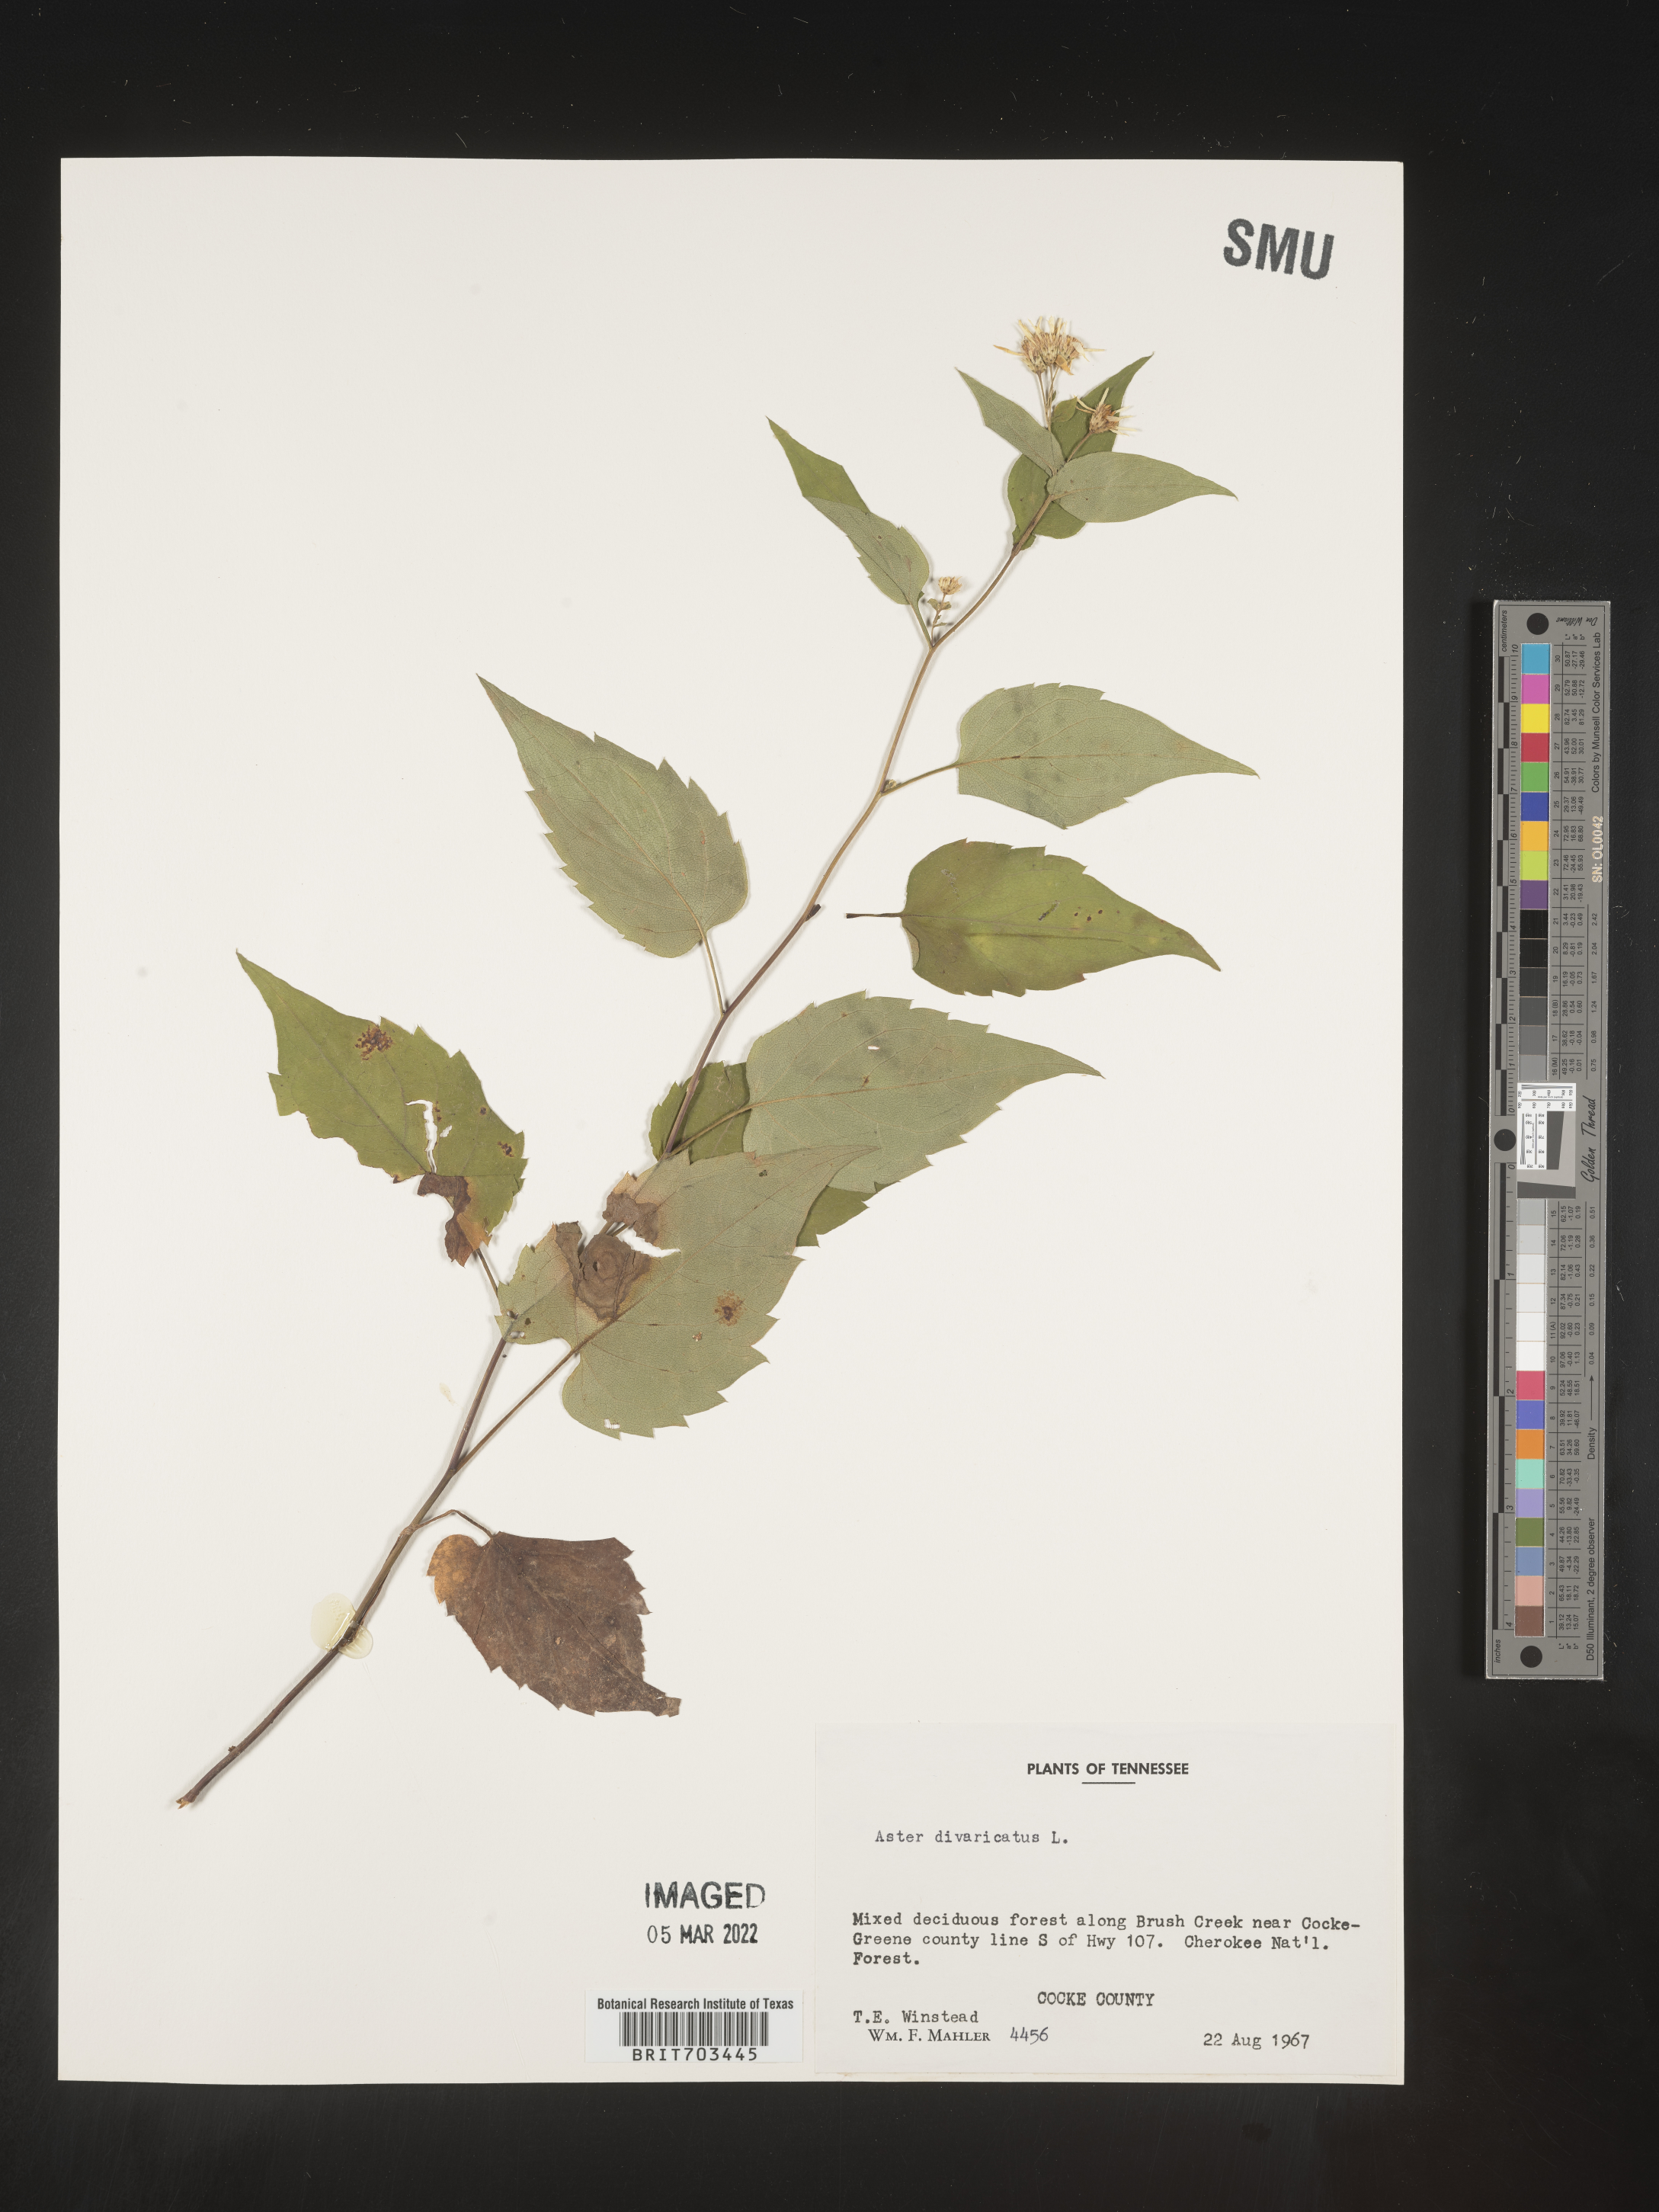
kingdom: Plantae
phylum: Tracheophyta
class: Magnoliopsida
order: Asterales
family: Asteraceae
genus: Eurybia
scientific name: Eurybia divaricata
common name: White wood aster
